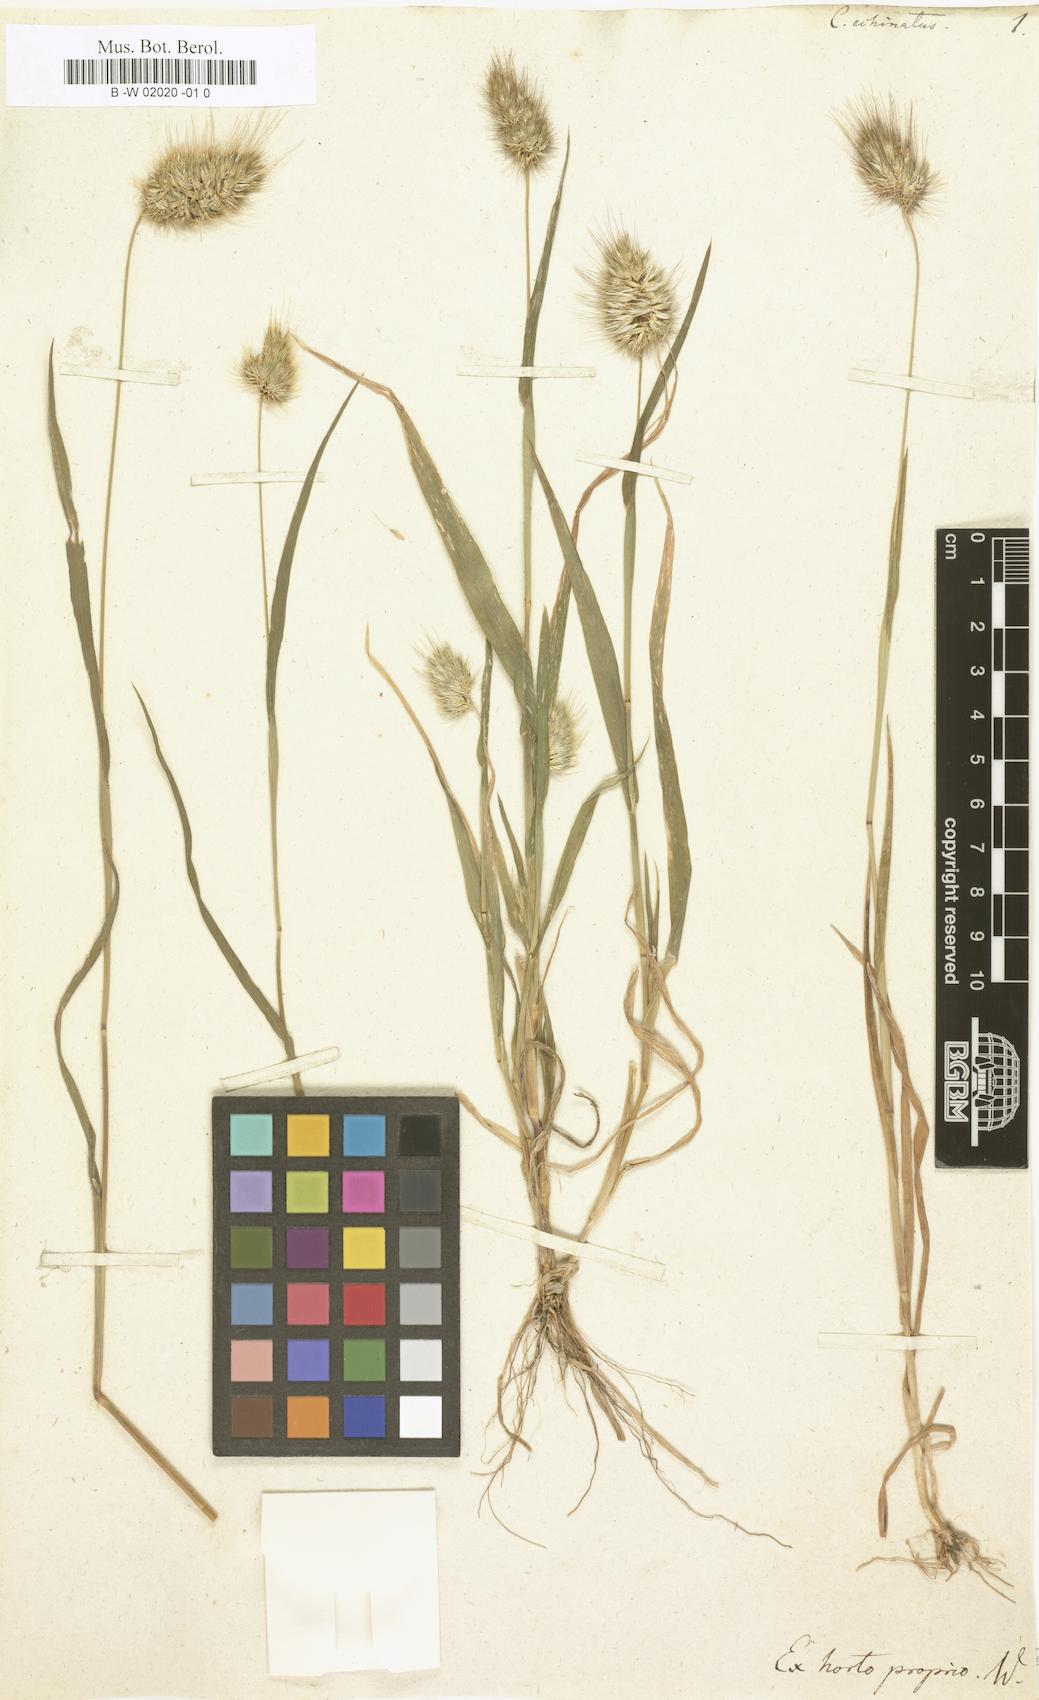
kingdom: Plantae
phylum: Tracheophyta
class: Liliopsida
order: Poales
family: Poaceae
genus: Cynosurus
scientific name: Cynosurus echinatus
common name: Rough dog's-tail
